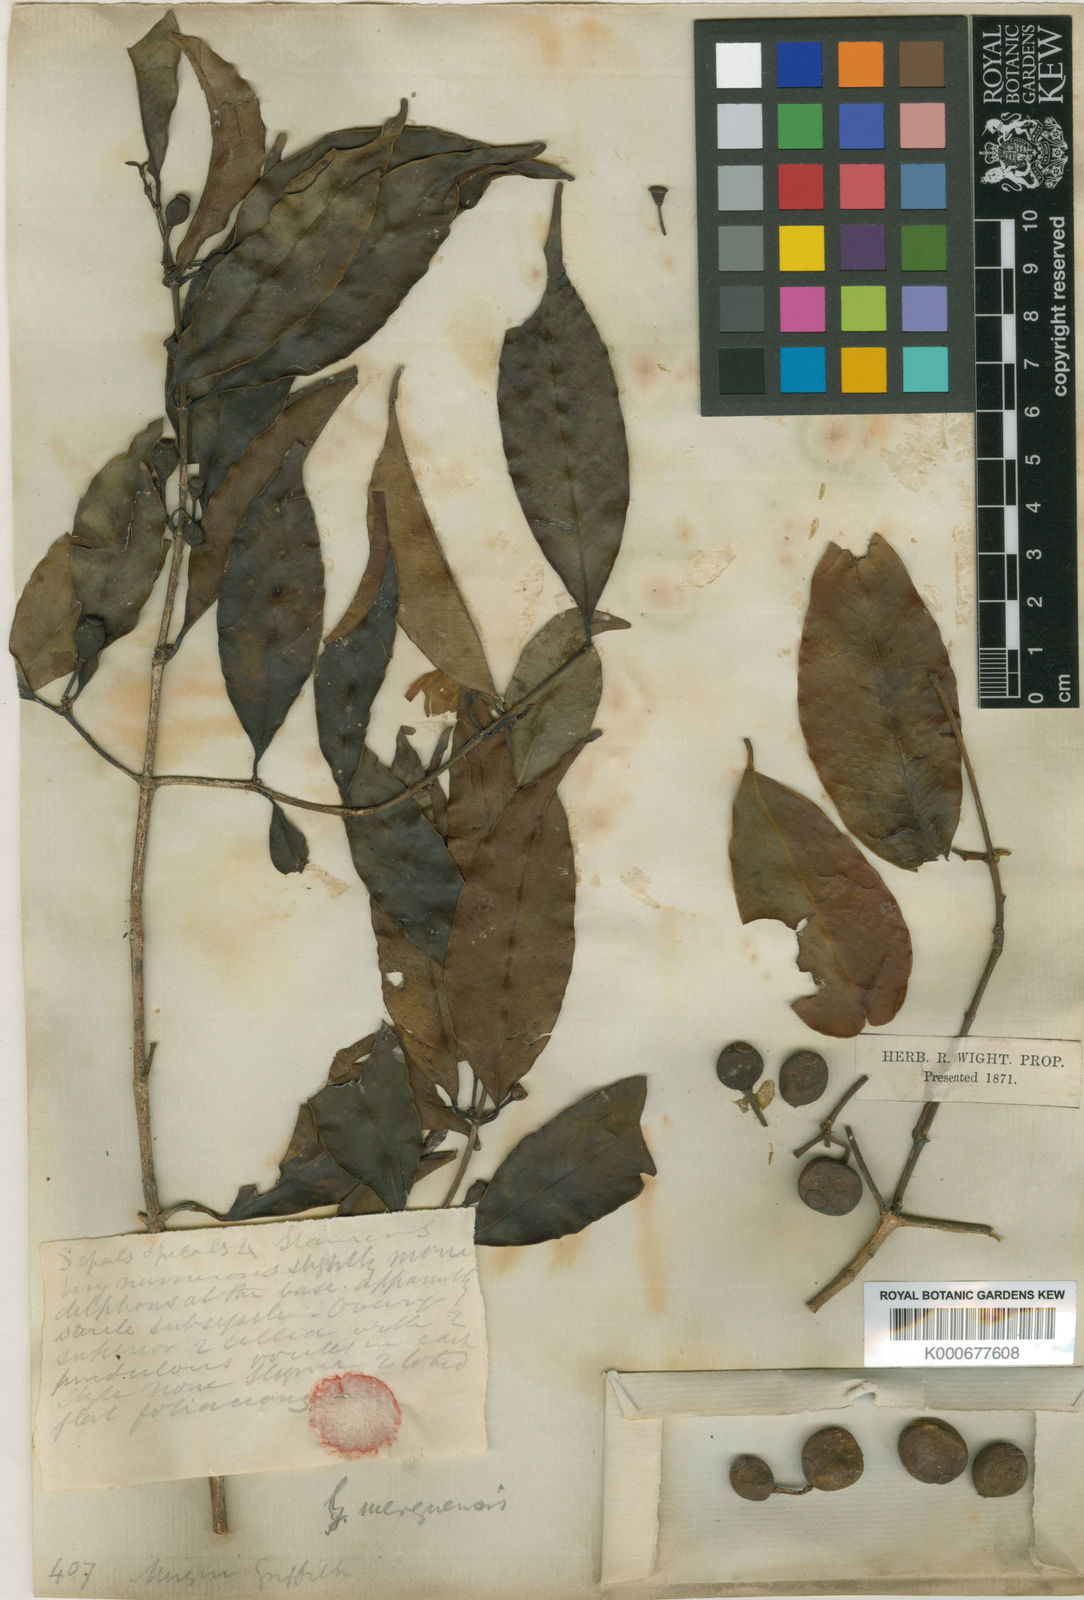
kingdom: Plantae
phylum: Tracheophyta
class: Magnoliopsida
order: Malpighiales
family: Clusiaceae
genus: Garcinia
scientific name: Garcinia merguensis
